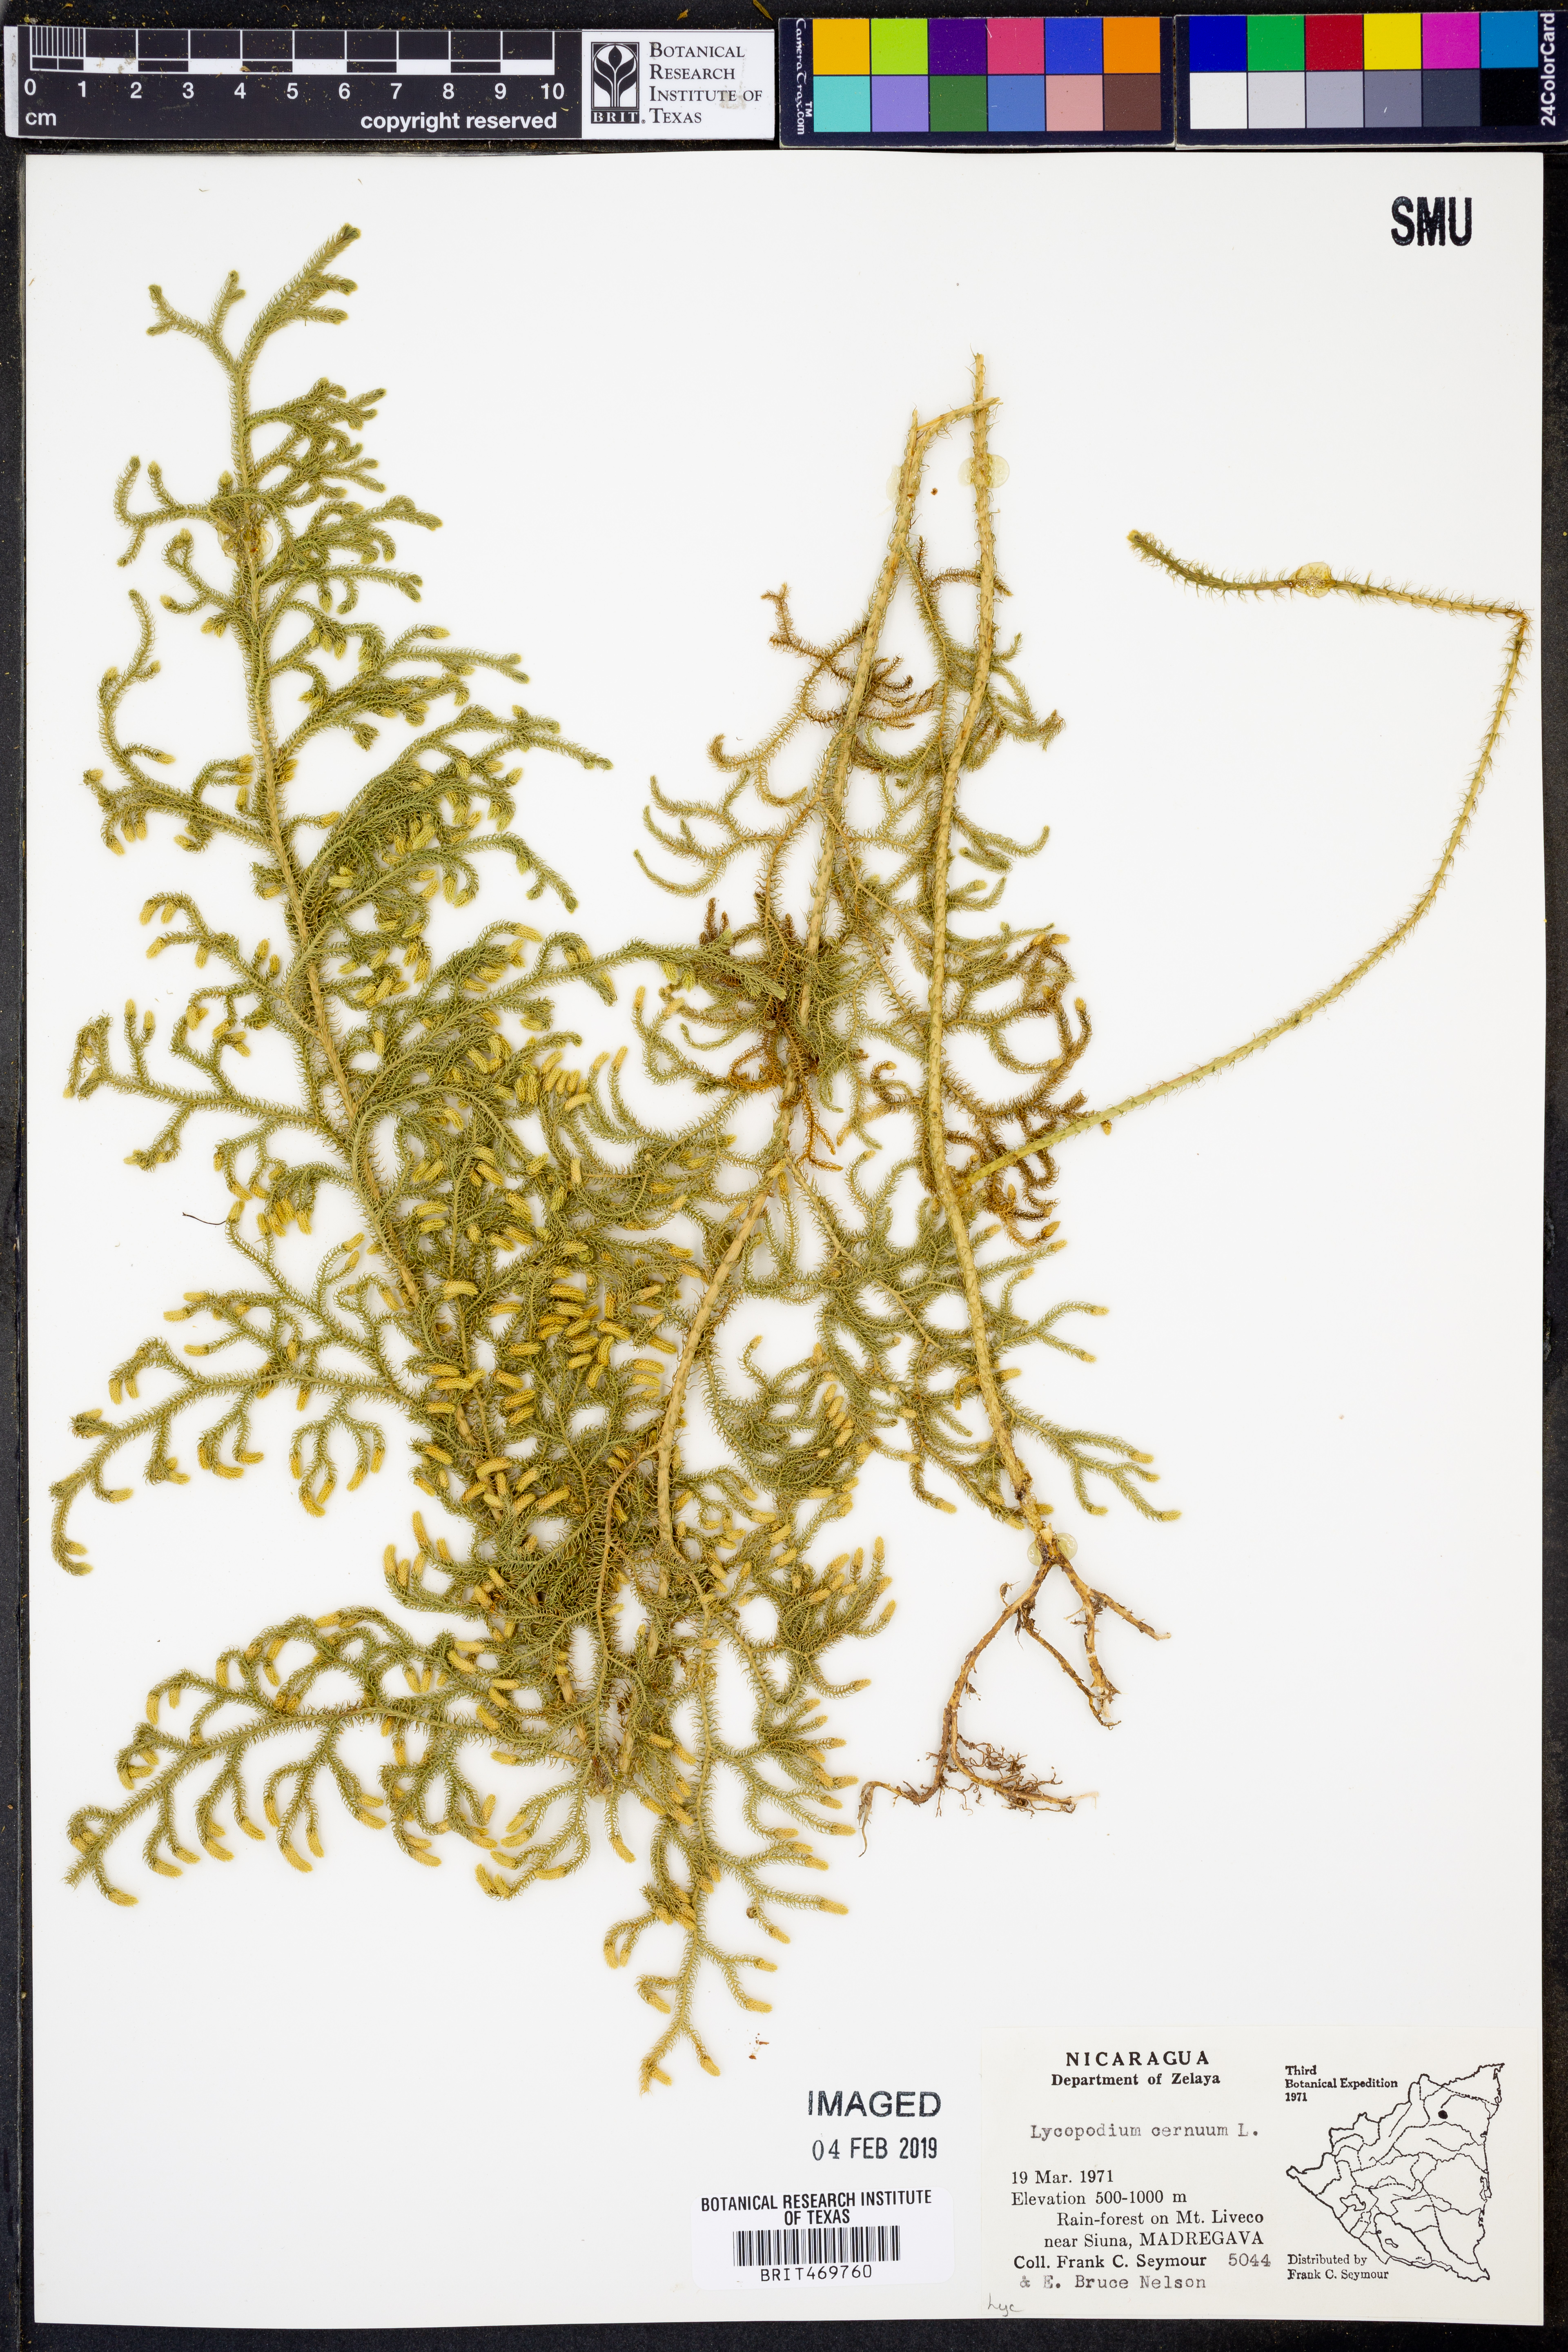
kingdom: Plantae
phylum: Tracheophyta
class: Lycopodiopsida
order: Lycopodiales
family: Lycopodiaceae
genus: Palhinhaea
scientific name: Palhinhaea cernua
